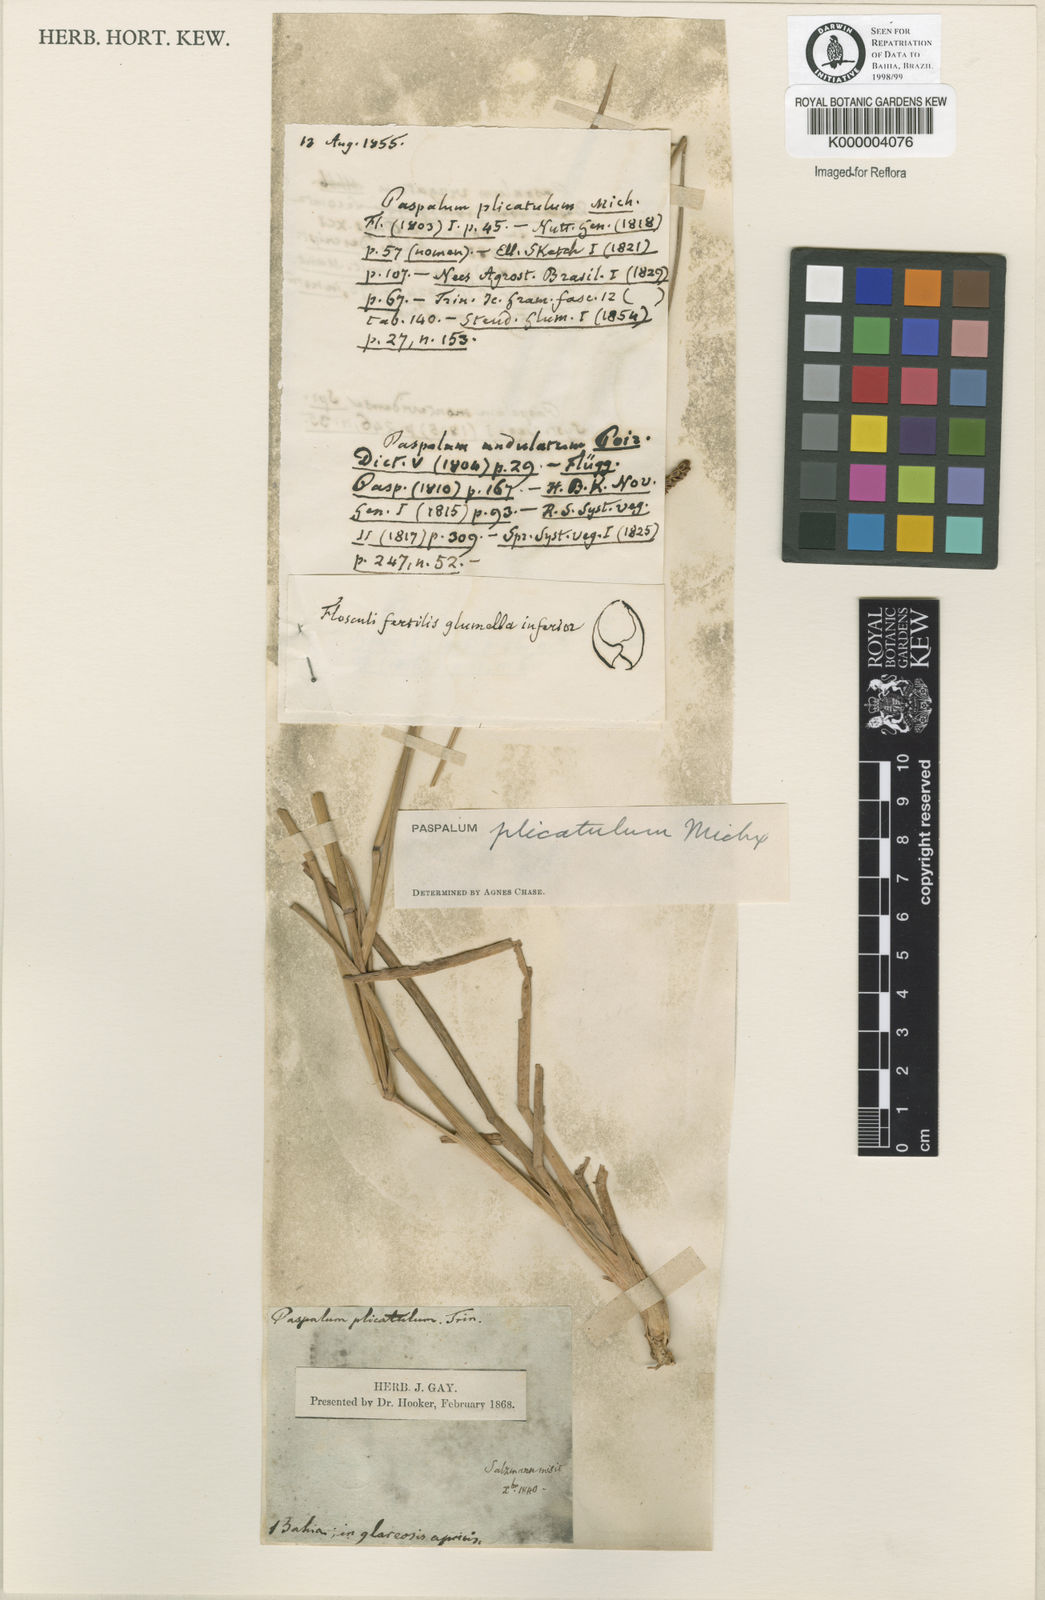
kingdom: Plantae
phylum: Tracheophyta
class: Liliopsida
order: Poales
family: Poaceae
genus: Paspalum
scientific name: Paspalum plicatulum
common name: Top paspalum
